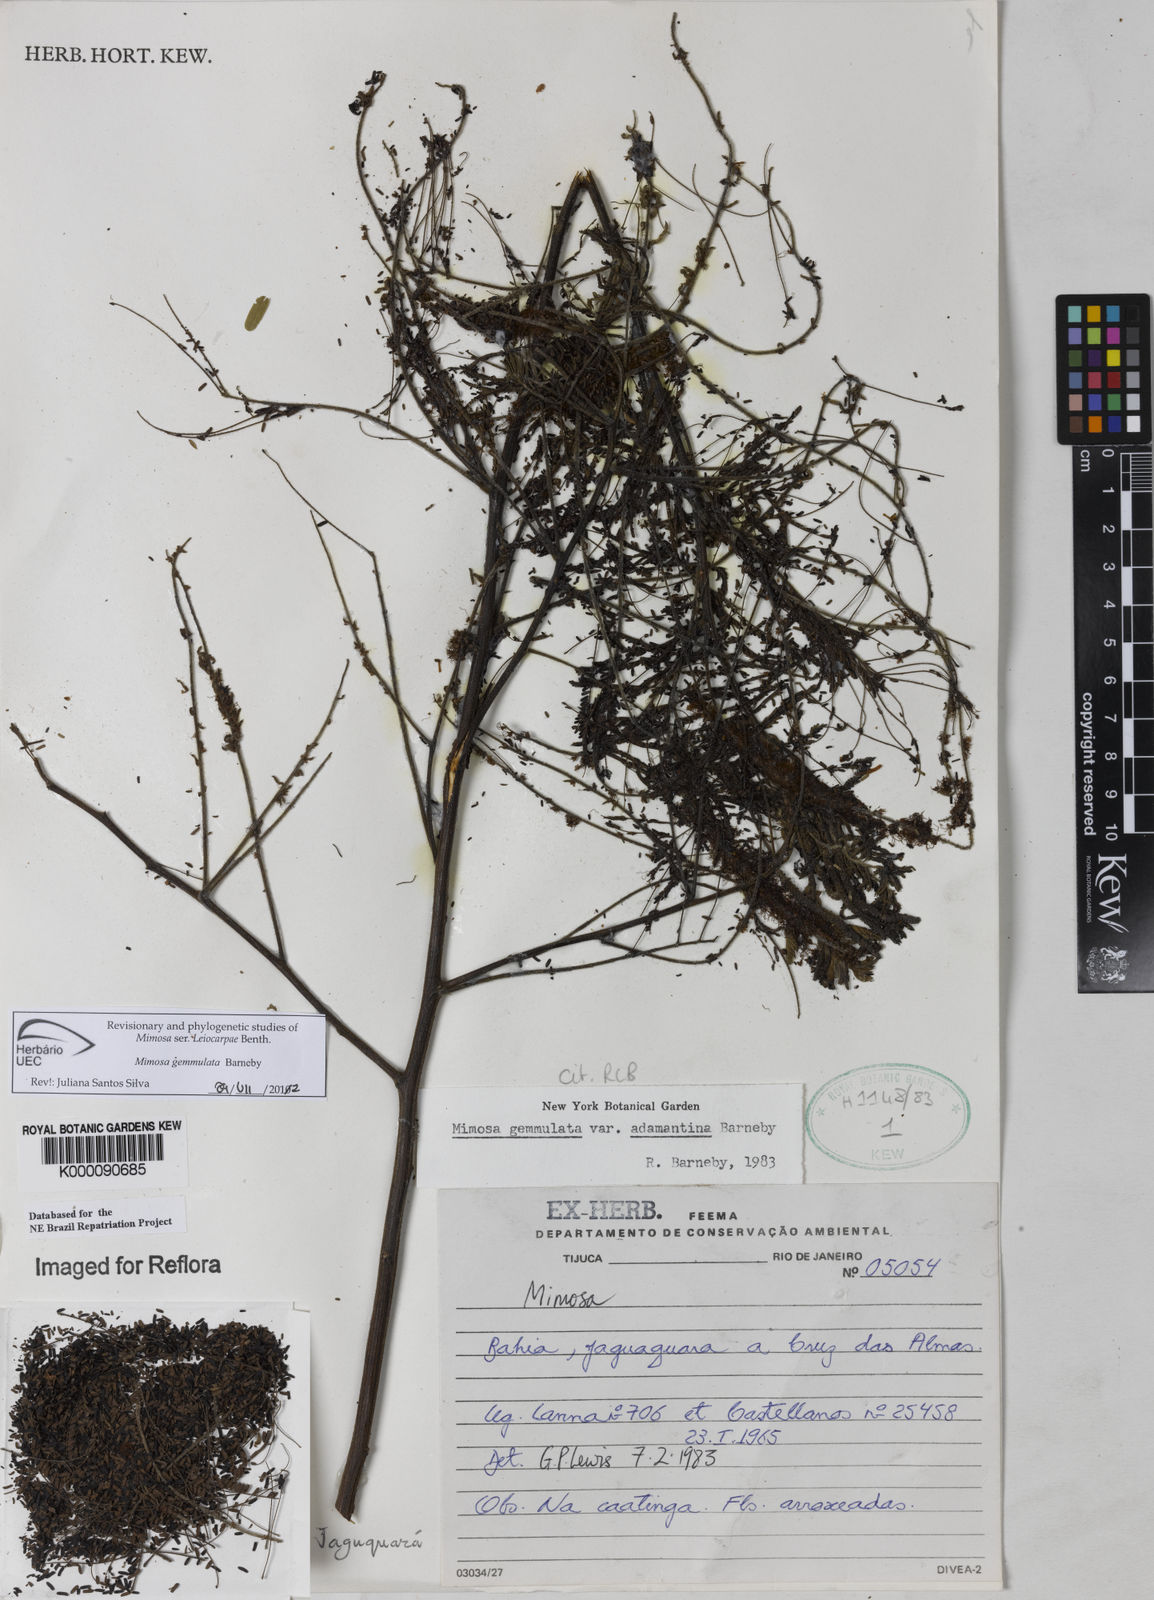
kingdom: Plantae
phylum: Tracheophyta
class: Magnoliopsida
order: Fabales
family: Fabaceae
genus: Mimosa
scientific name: Mimosa gemmulata
